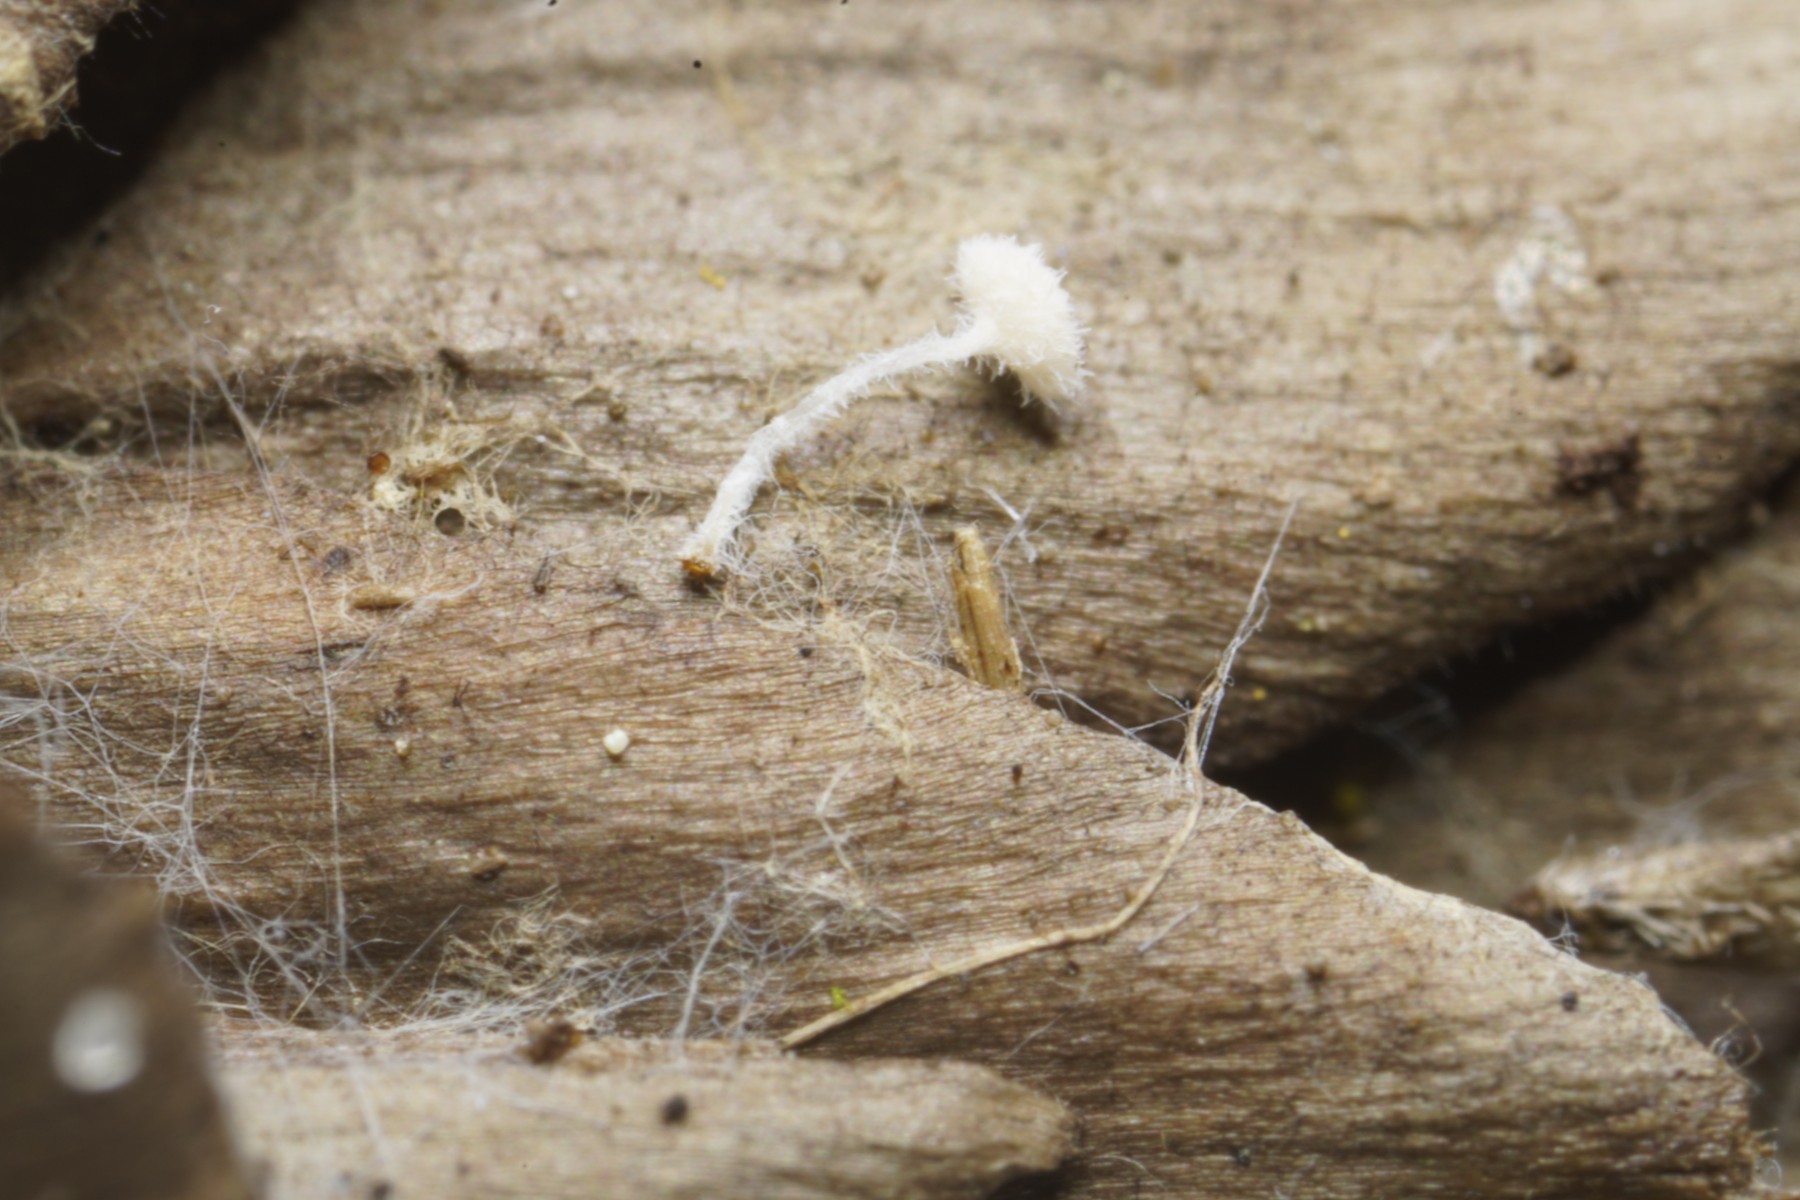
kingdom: Fungi
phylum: Ascomycota
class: Leotiomycetes
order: Helotiales
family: Lachnaceae
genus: Lachnum
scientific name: Lachnum virgineum
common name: jomfru-frynseskive
